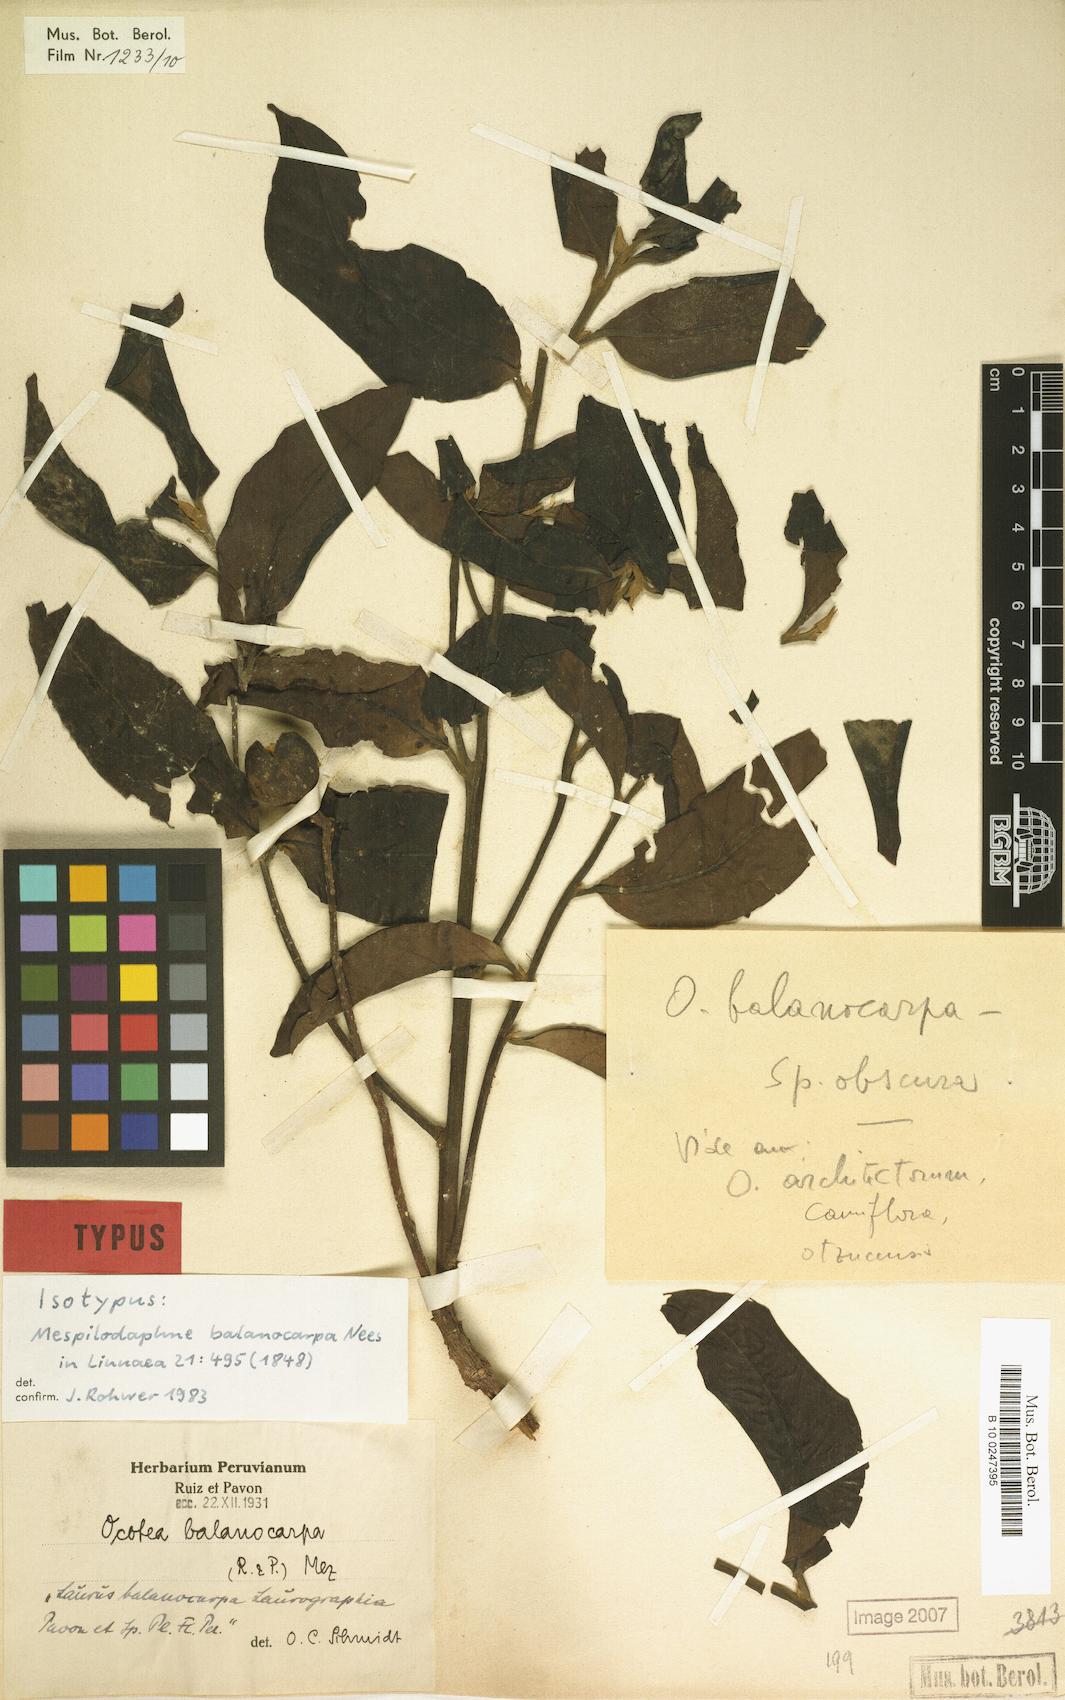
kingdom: Plantae
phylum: Tracheophyta
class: Magnoliopsida
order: Laurales
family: Lauraceae
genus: Mespilodaphne
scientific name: Mespilodaphne balanocarpa
